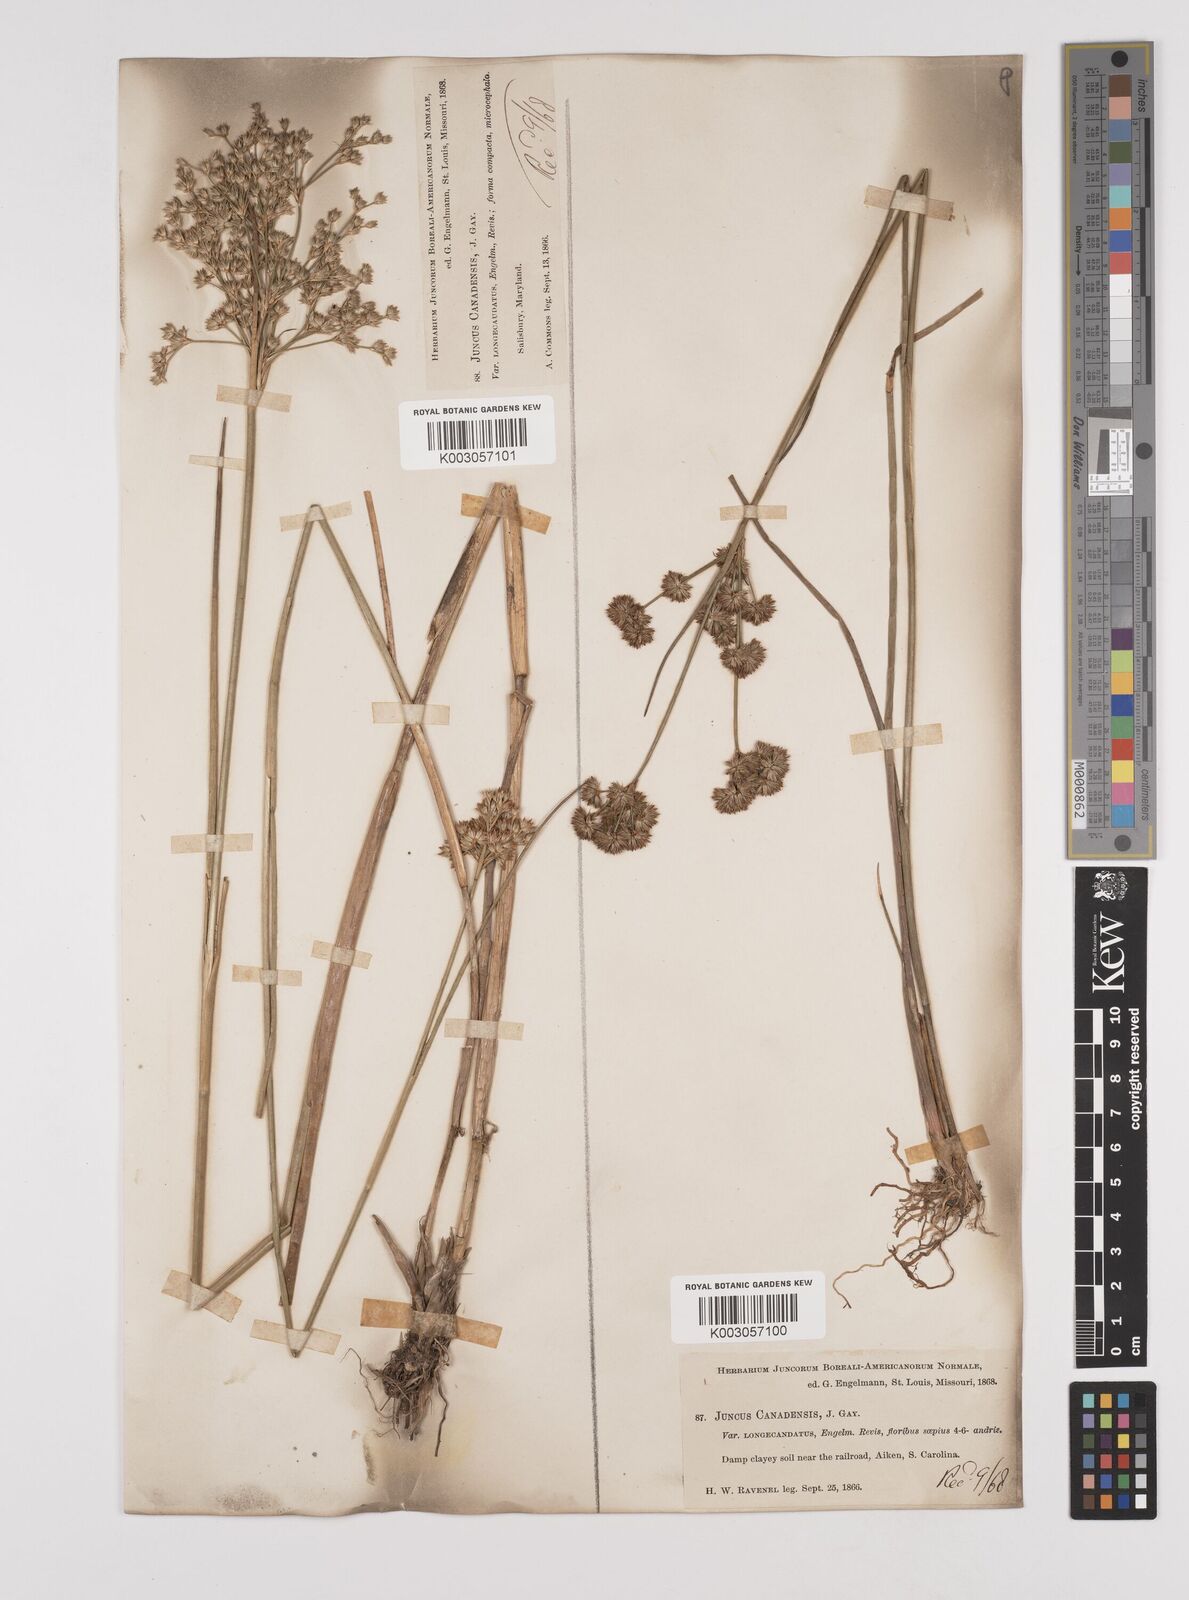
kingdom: Plantae
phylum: Tracheophyta
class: Liliopsida
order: Poales
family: Juncaceae
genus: Juncus
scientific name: Juncus canadensis
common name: Canada rush
